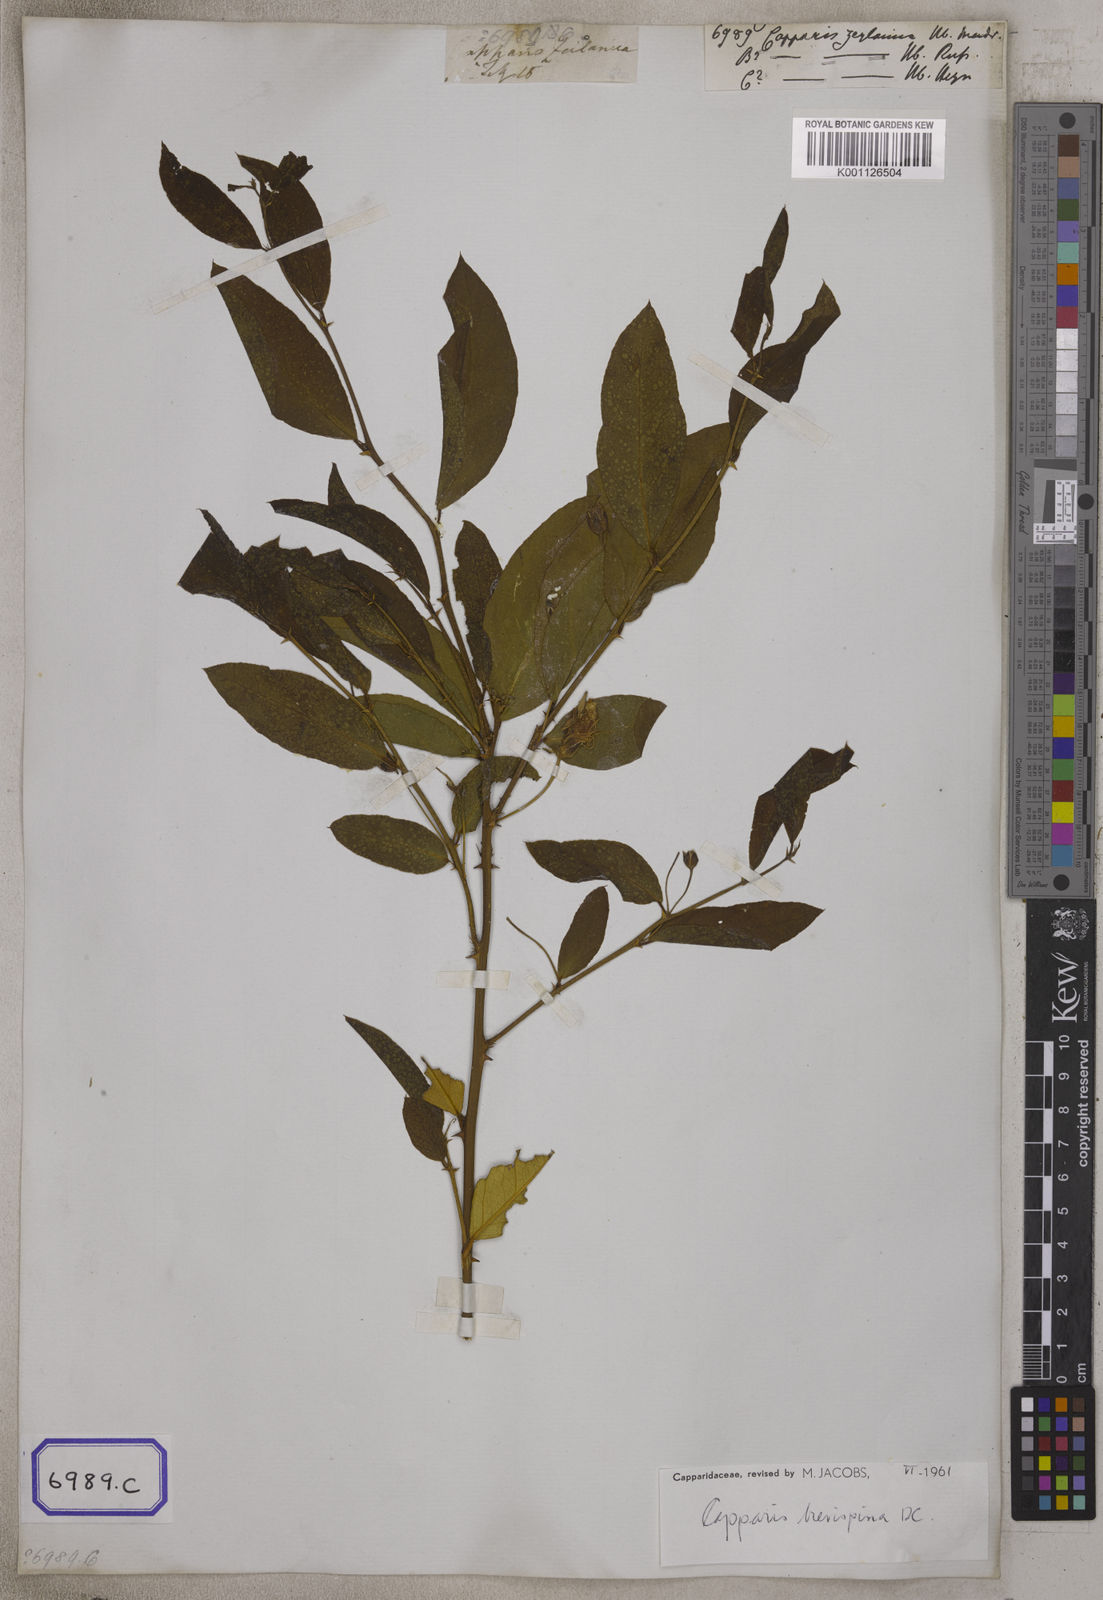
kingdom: Plantae
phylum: Tracheophyta
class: Magnoliopsida
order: Brassicales
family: Capparaceae
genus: Capparis
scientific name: Capparis zeylanica
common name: Ceylon caper
